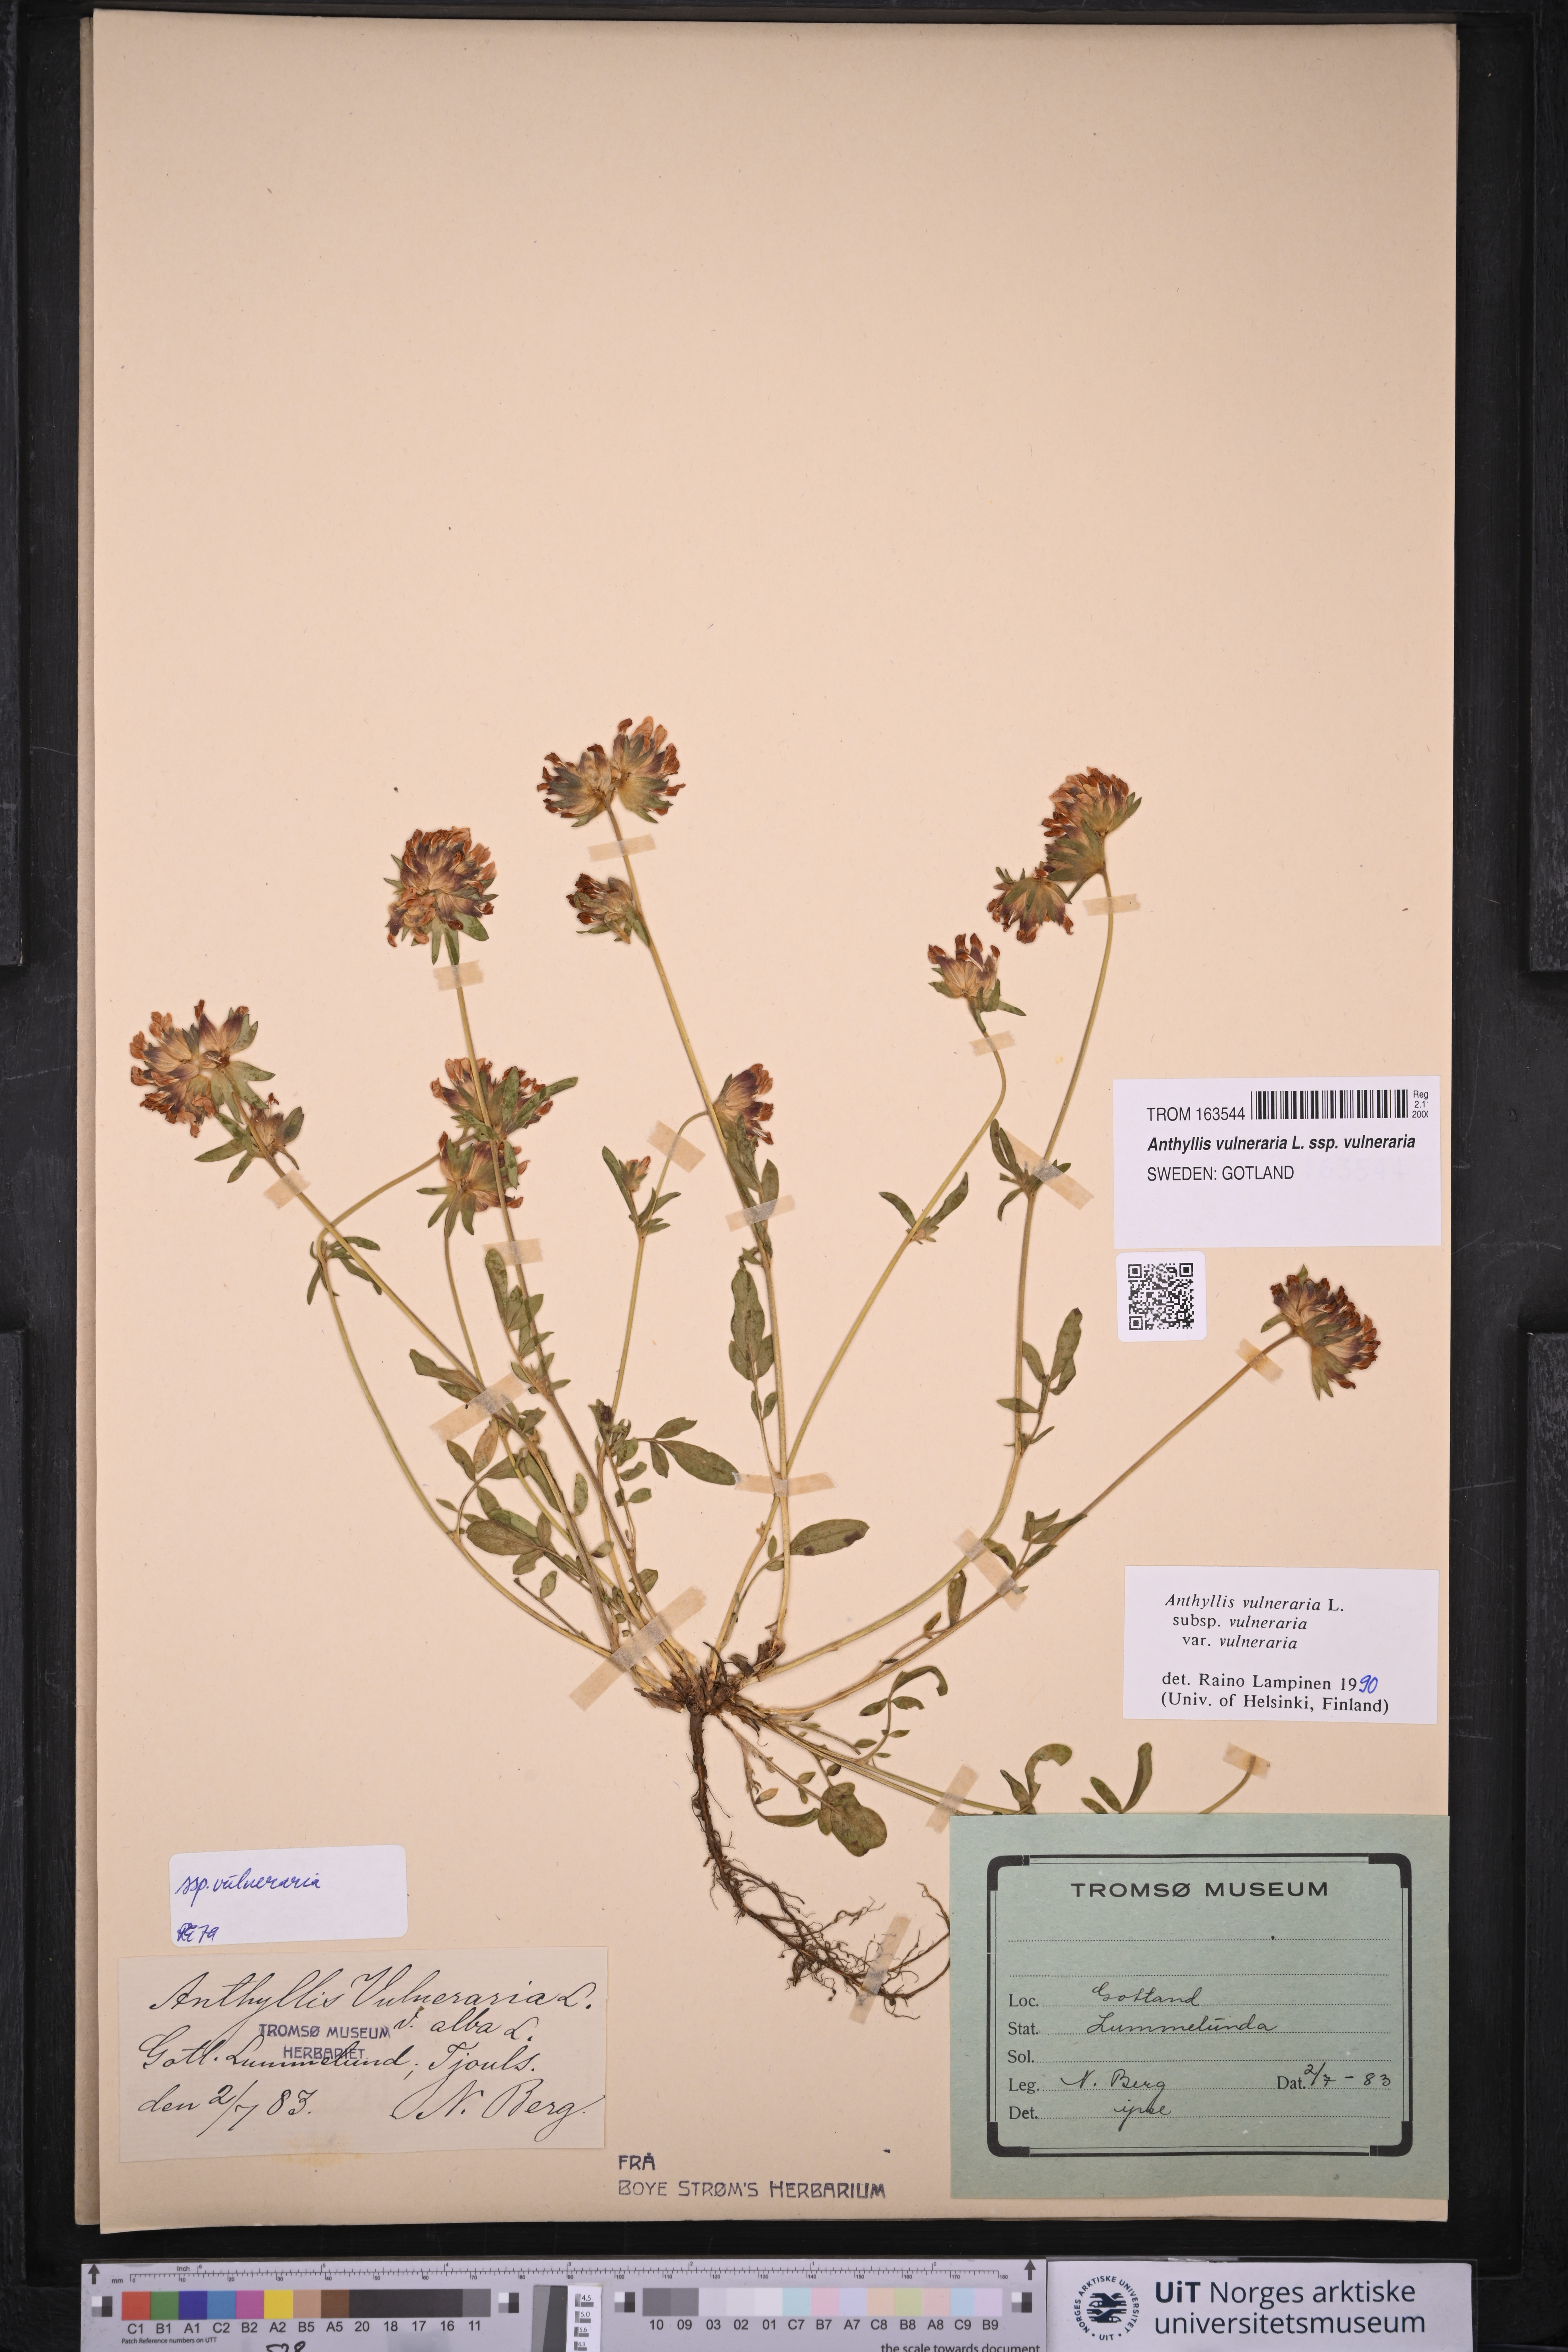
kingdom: Plantae
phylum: Tracheophyta
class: Magnoliopsida
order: Fabales
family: Fabaceae
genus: Anthyllis
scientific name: Anthyllis vulneraria
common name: Kidney vetch
